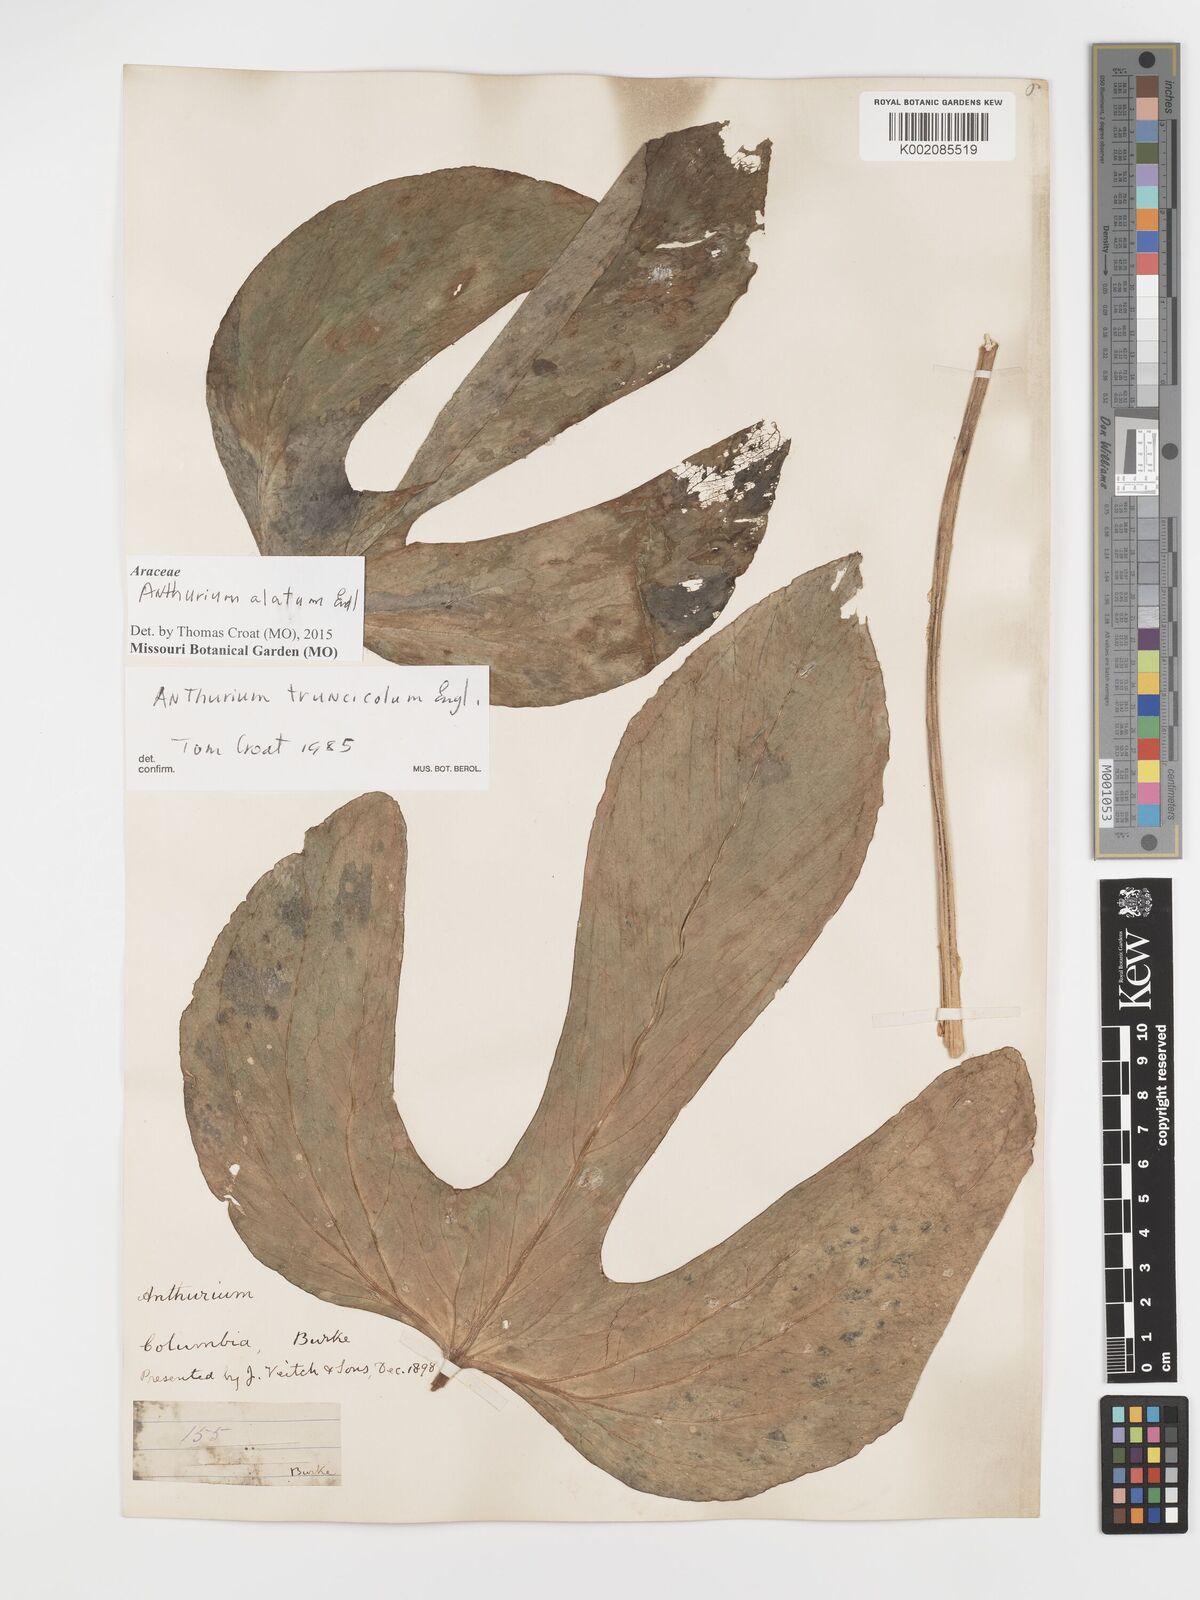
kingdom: Plantae
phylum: Tracheophyta
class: Liliopsida
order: Alismatales
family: Araceae
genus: Anthurium
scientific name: Anthurium alatum
